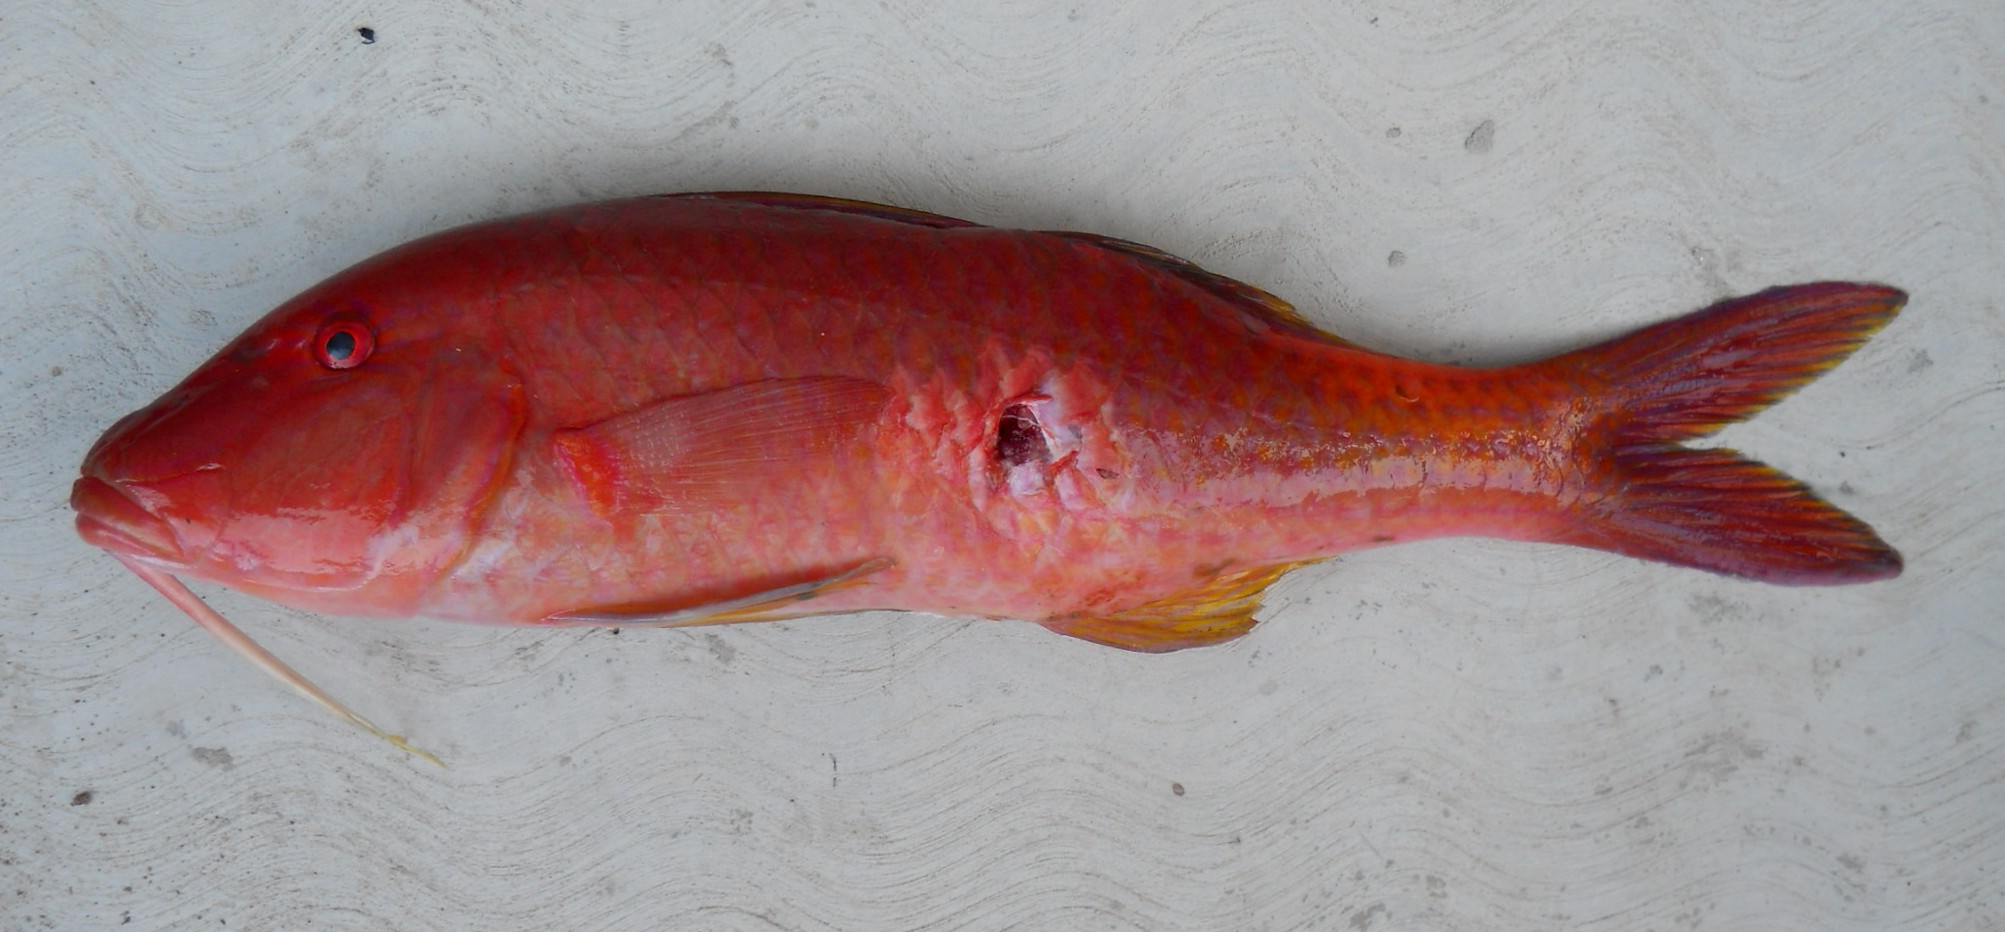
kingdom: Animalia
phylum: Chordata
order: Perciformes
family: Mullidae
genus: Parupeneus
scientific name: Parupeneus cyclostomus
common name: Goldsaddle goatfish
